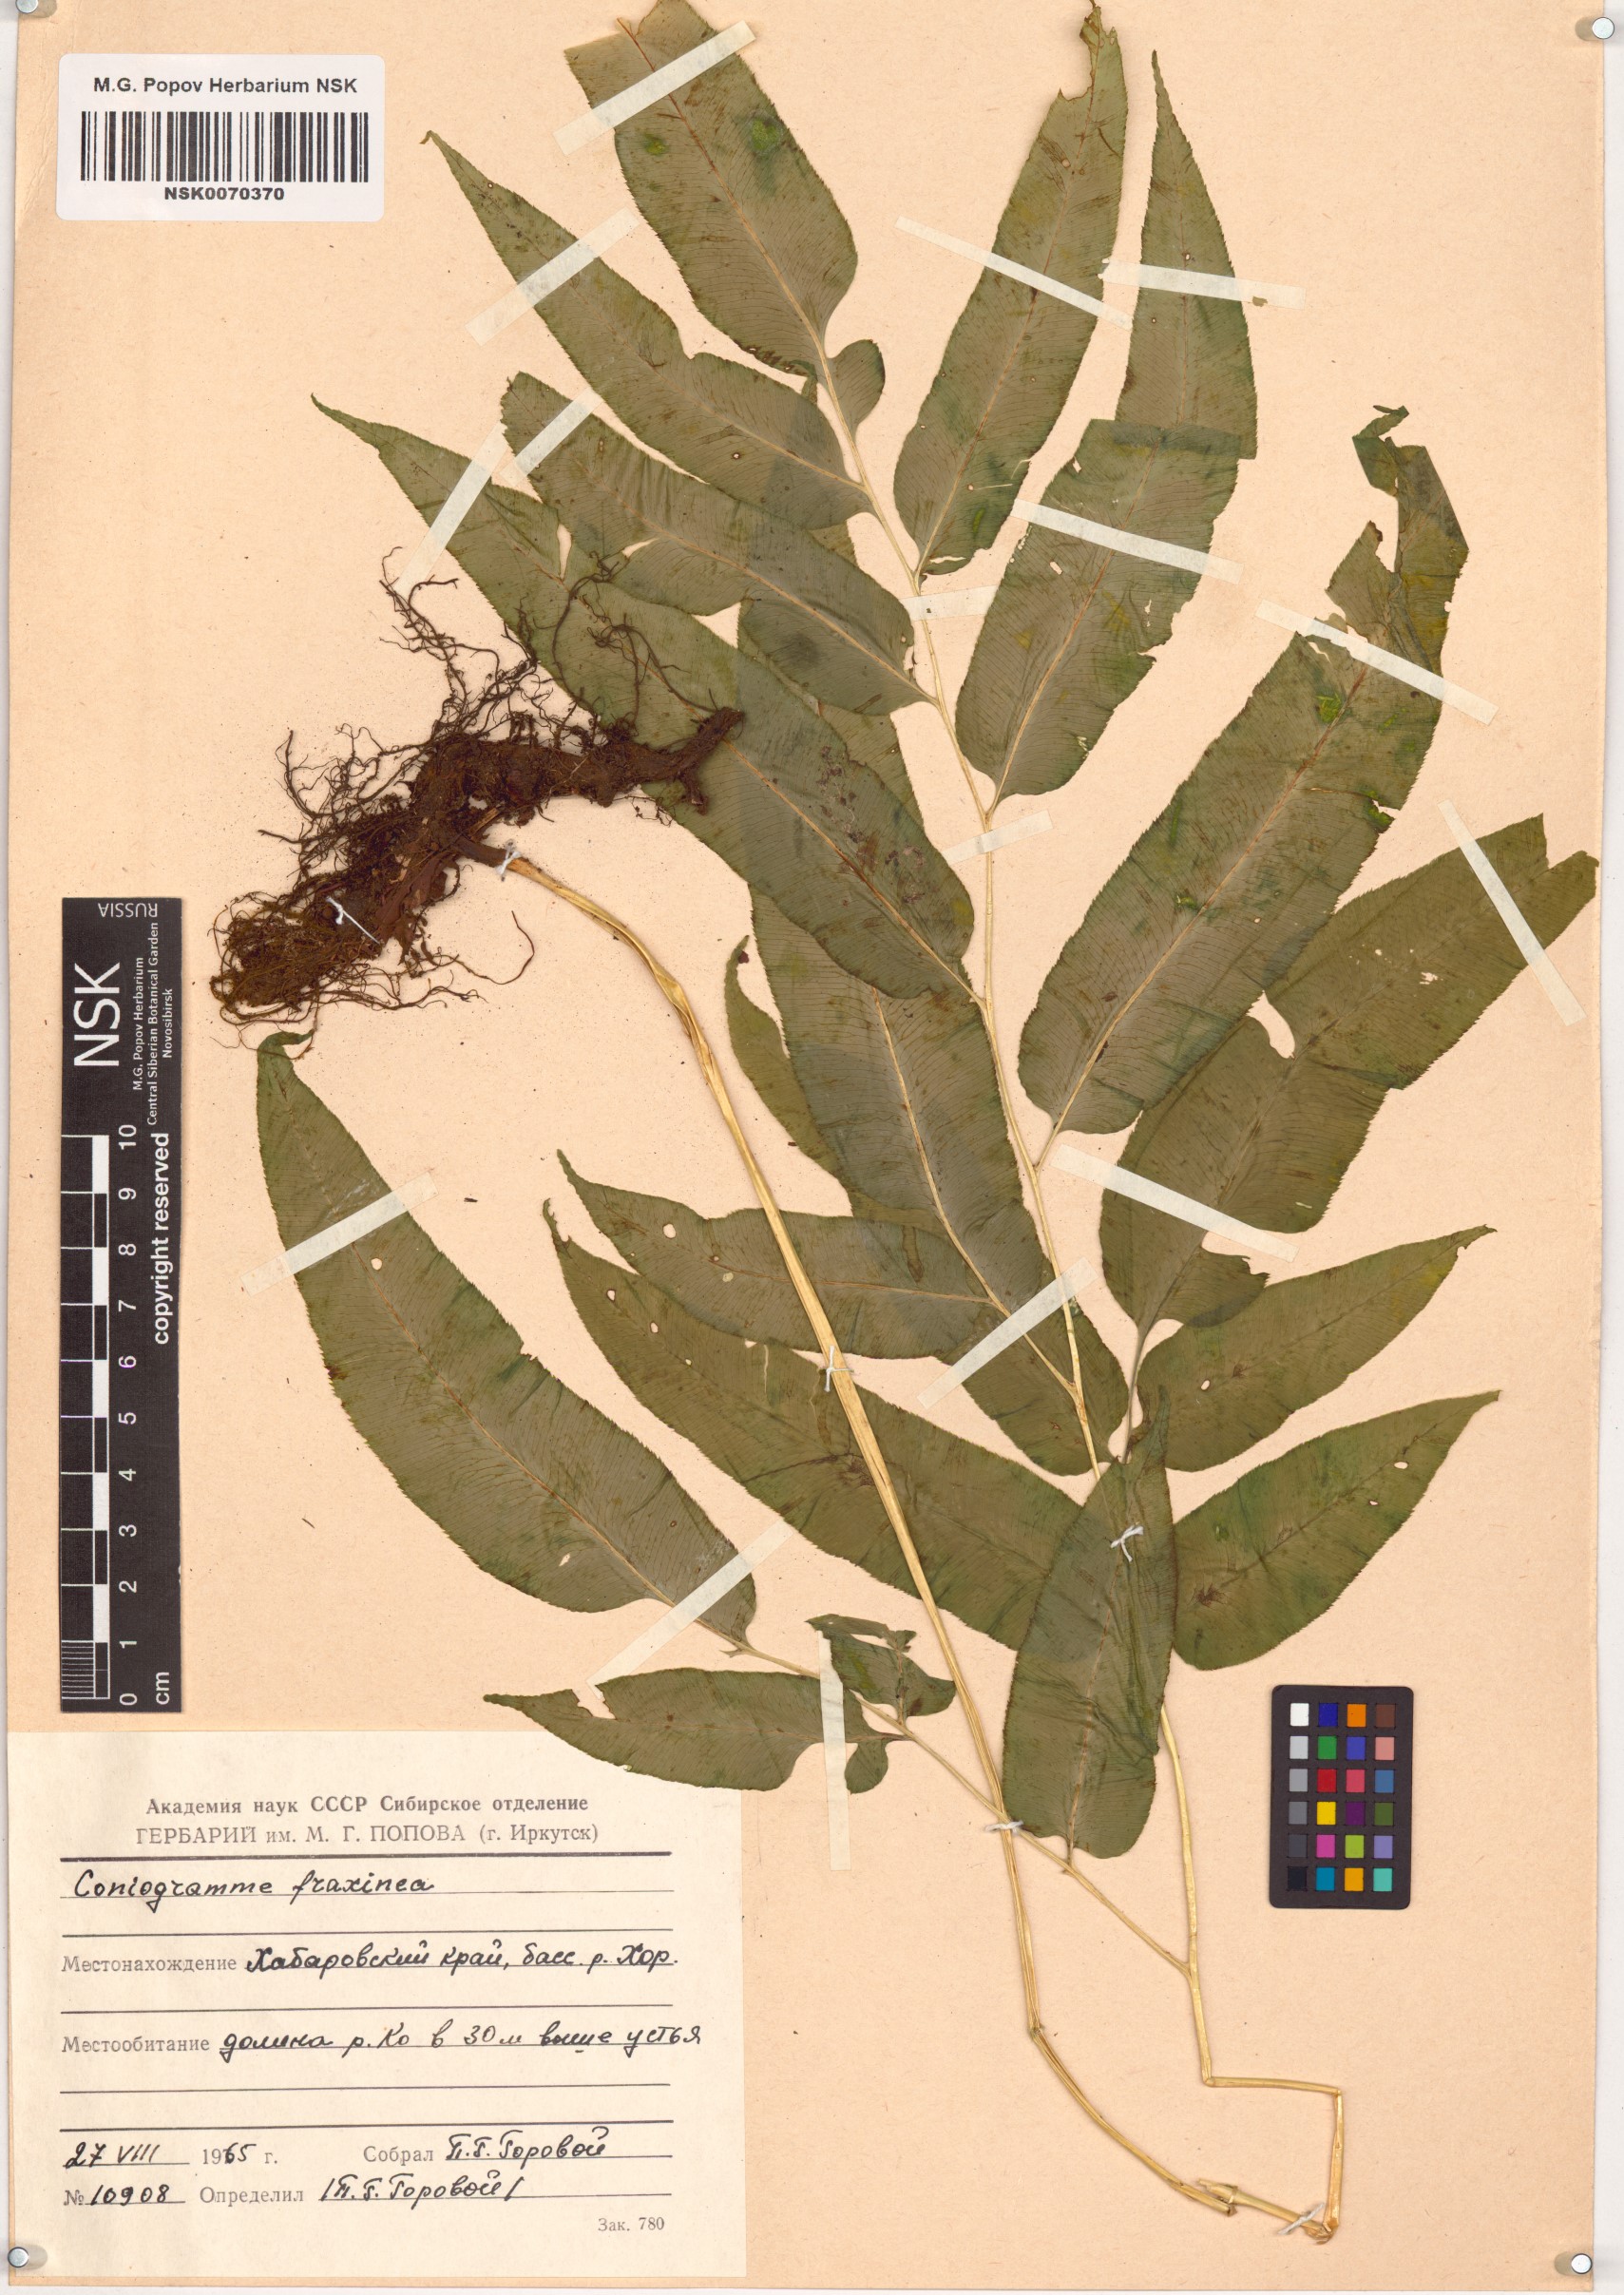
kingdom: Plantae
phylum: Tracheophyta
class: Polypodiopsida
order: Polypodiales
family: Pteridaceae
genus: Coniogramme
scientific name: Coniogramme fraxinea
